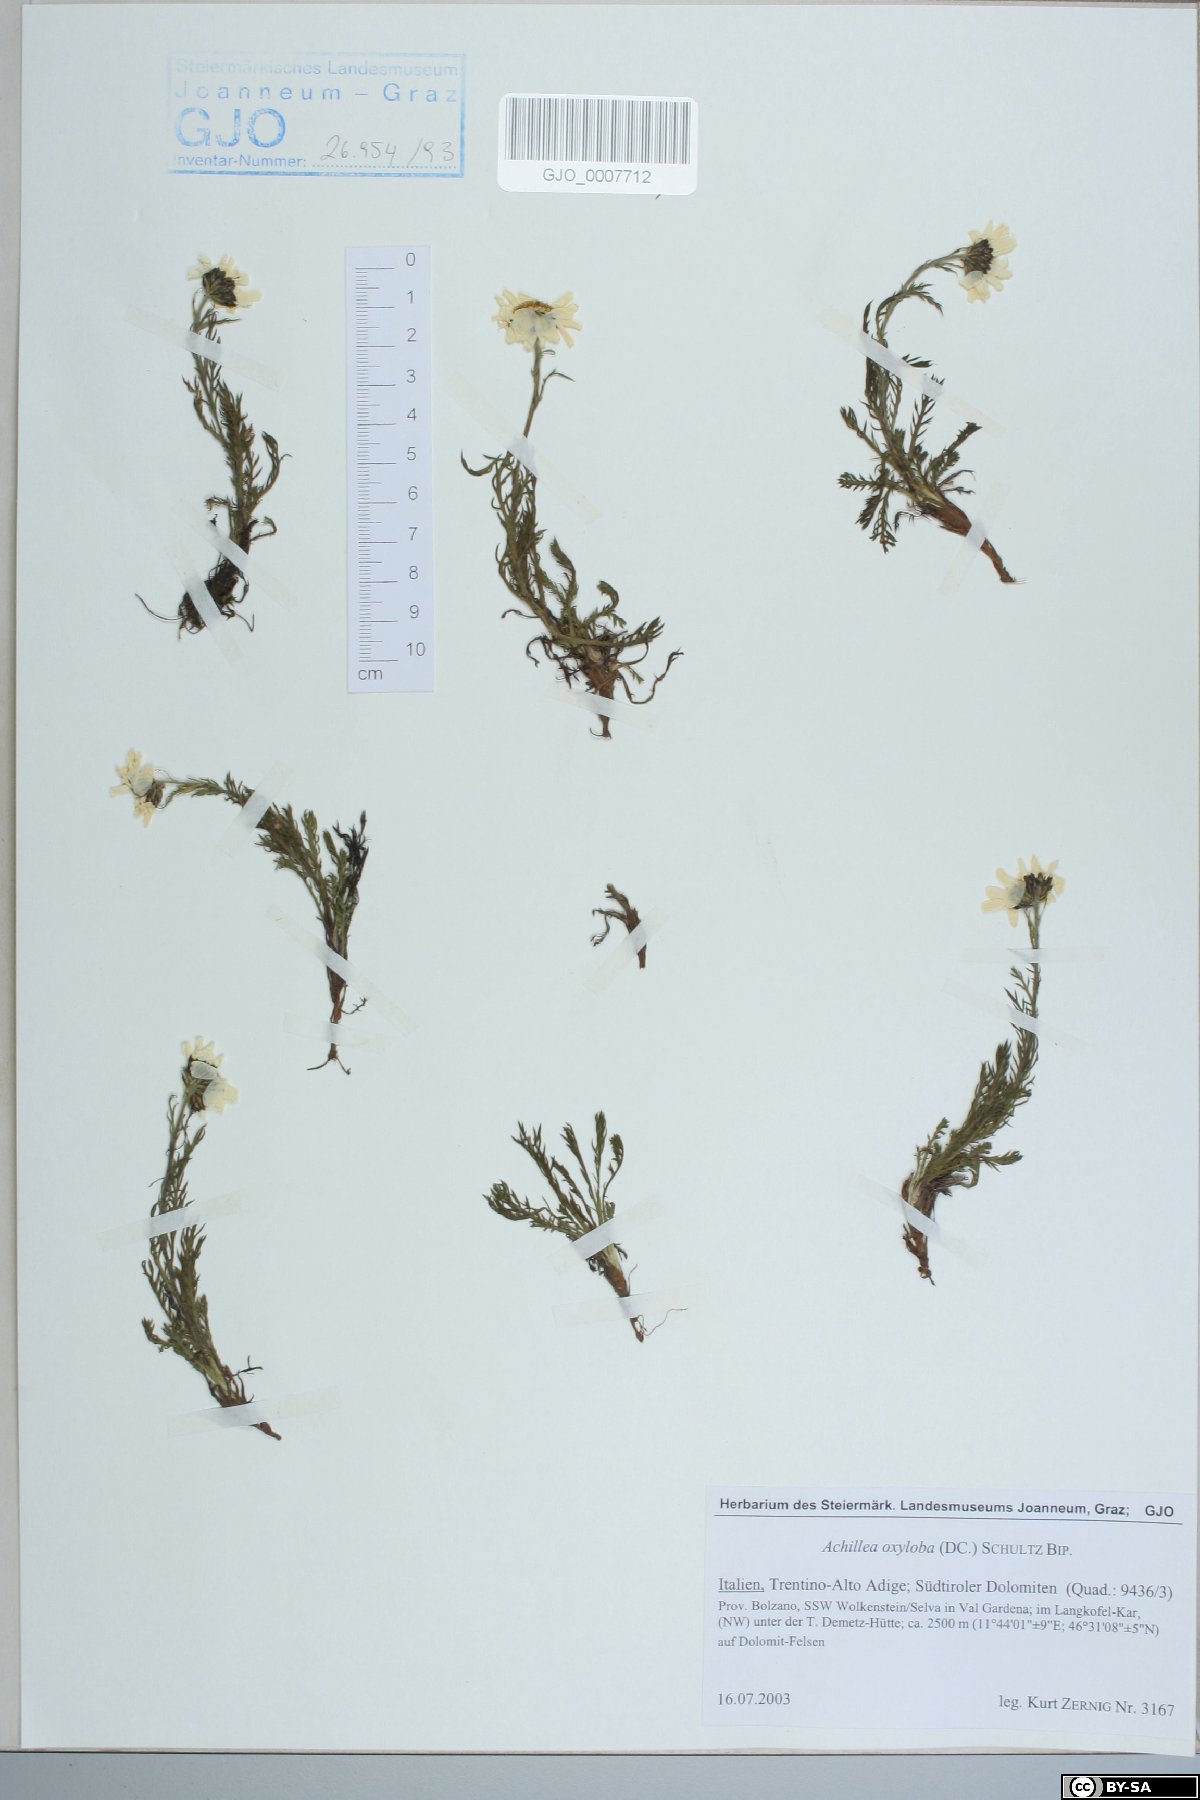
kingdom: Plantae
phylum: Tracheophyta
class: Magnoliopsida
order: Asterales
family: Asteraceae
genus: Achillea
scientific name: Achillea oxyloba
